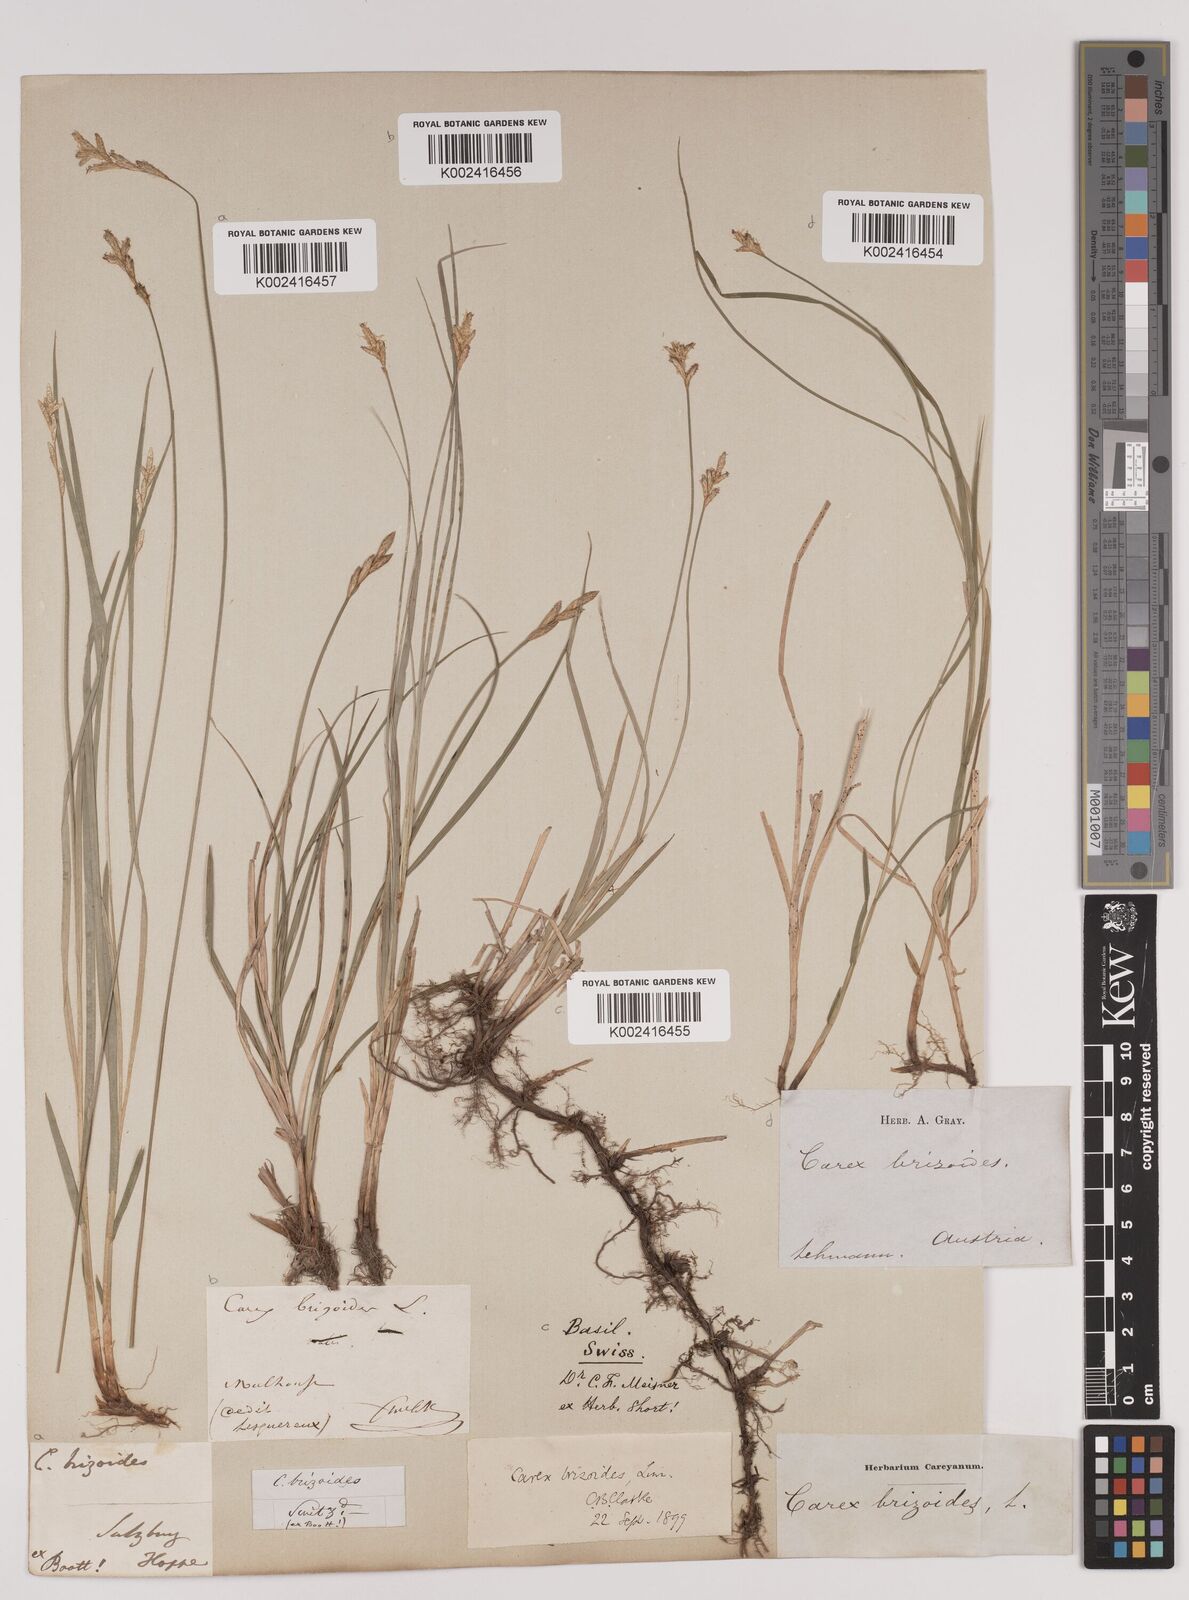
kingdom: Plantae
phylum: Tracheophyta
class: Liliopsida
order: Poales
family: Cyperaceae
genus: Carex
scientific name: Carex brizoides
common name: Quaking-grass sedge
